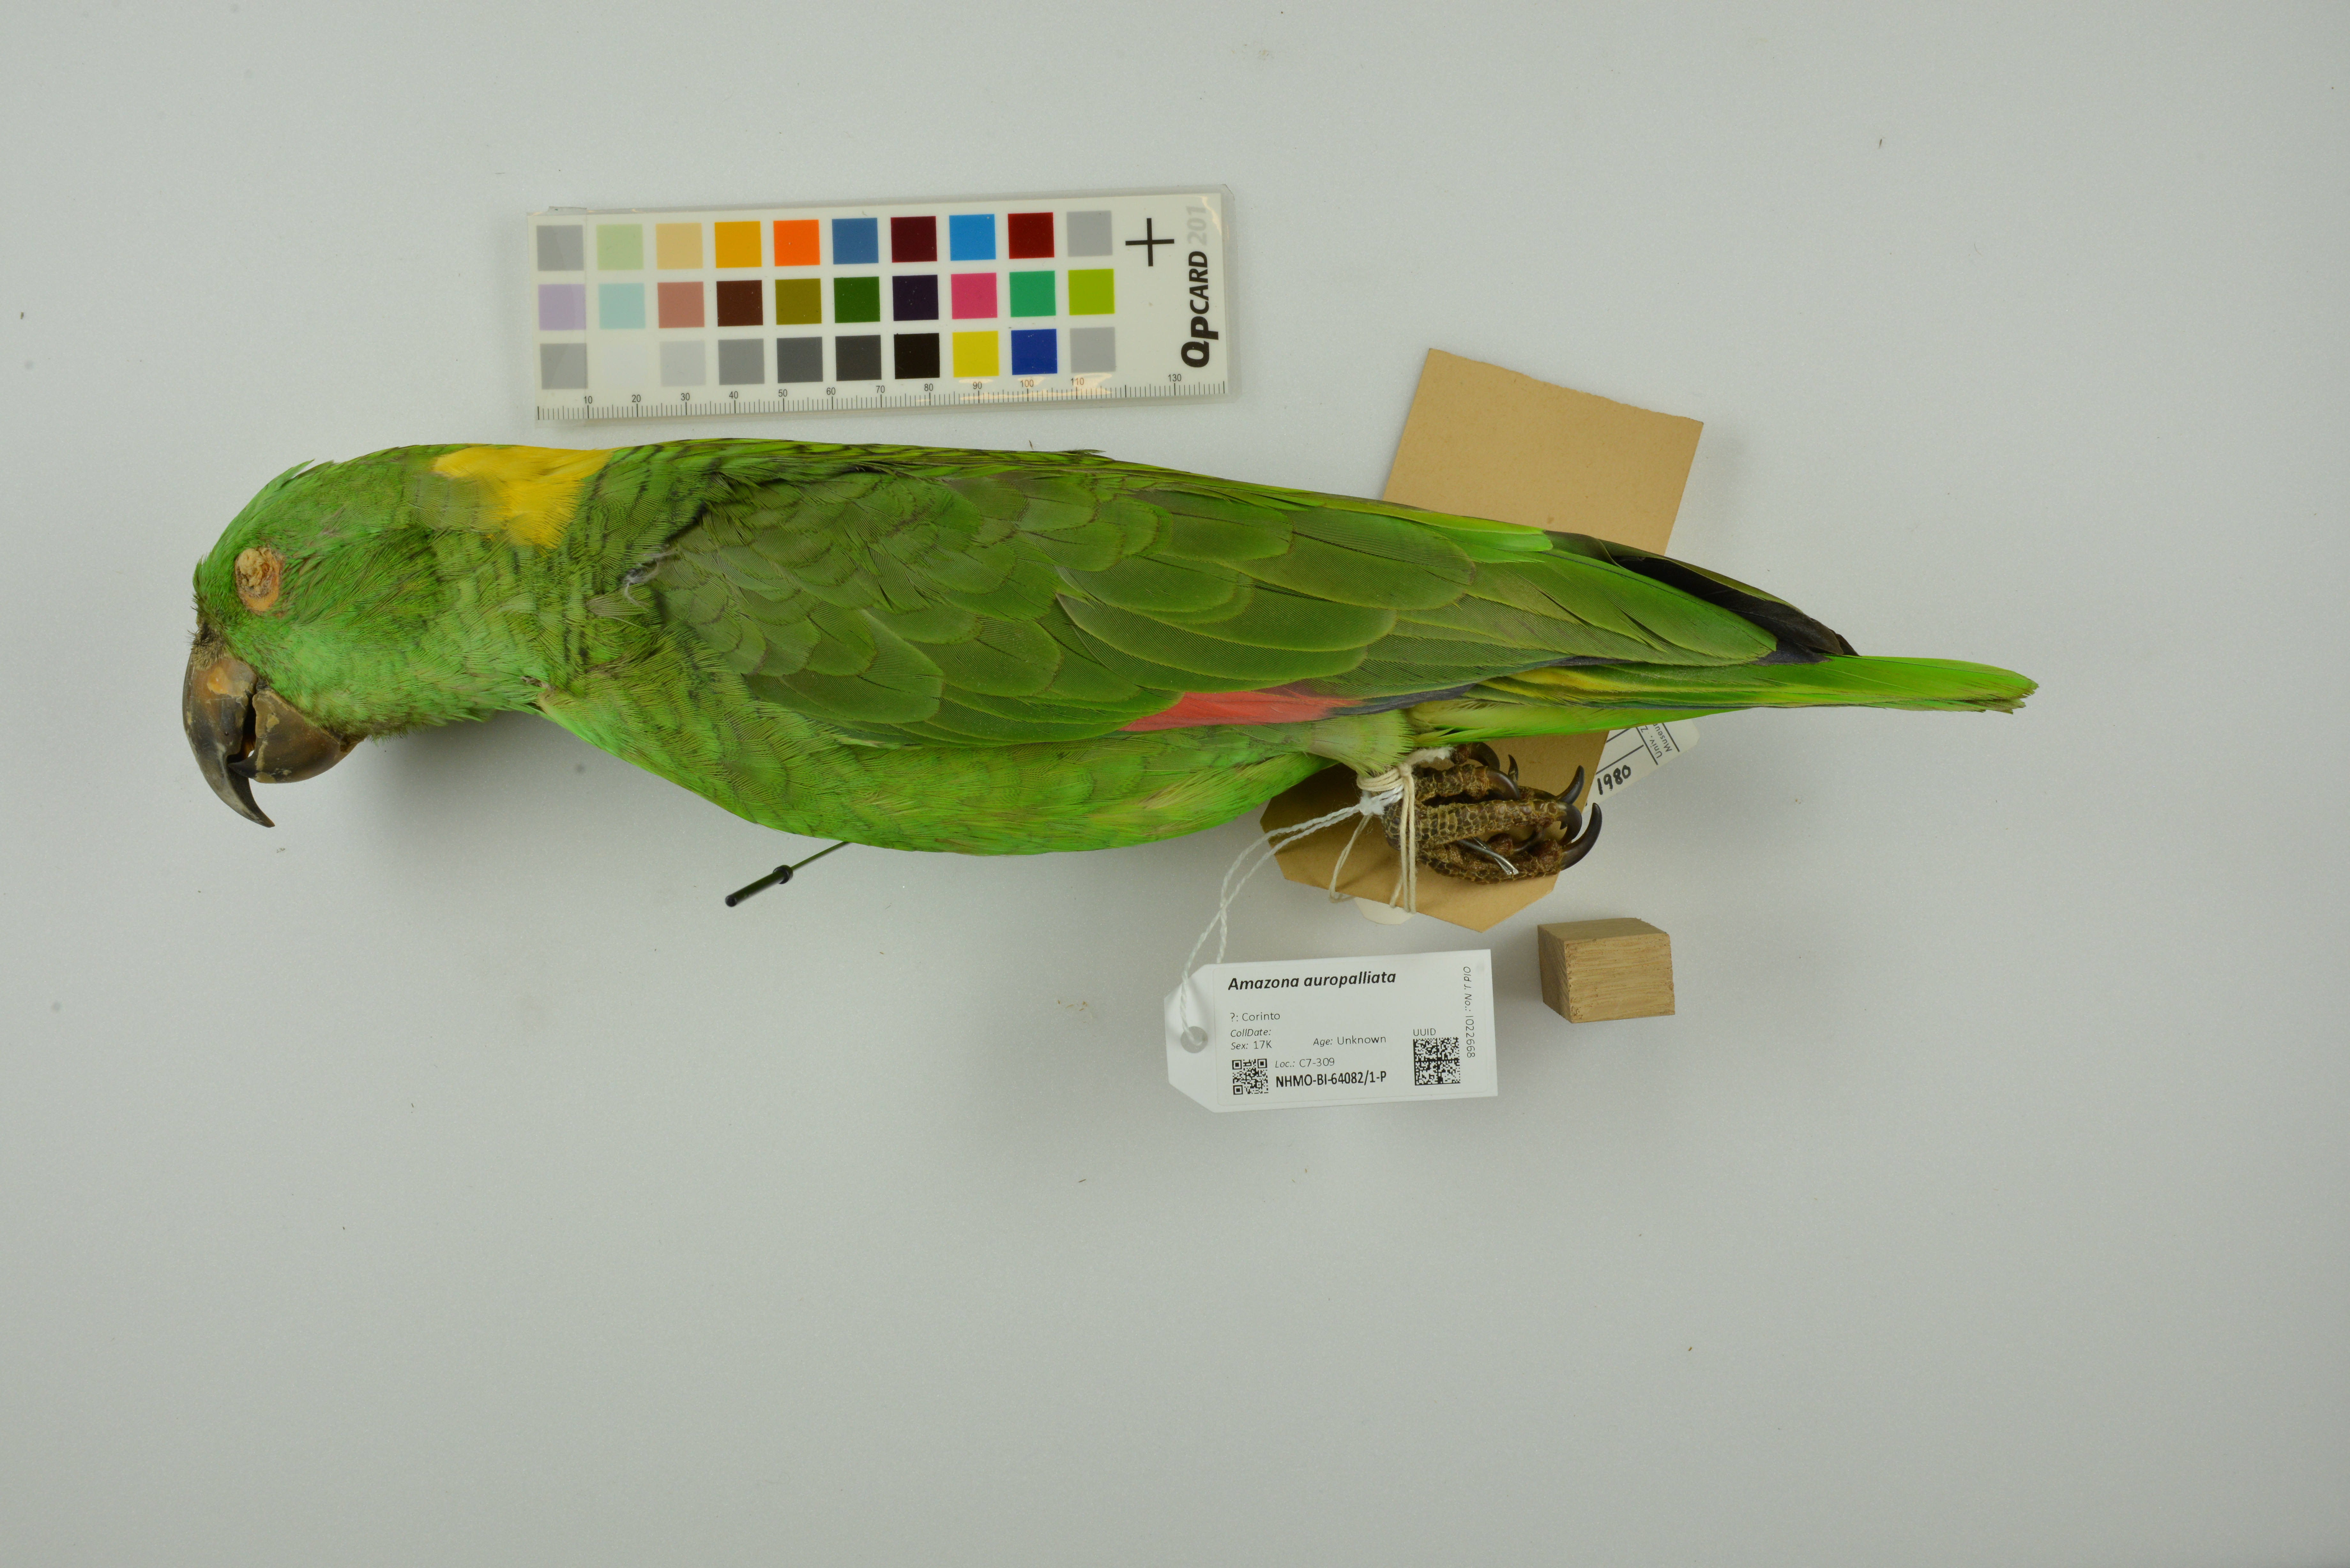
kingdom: Animalia
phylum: Chordata
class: Aves
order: Psittaciformes
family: Psittacidae
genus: Amazona
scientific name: Amazona auropalliata
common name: Yellow-naped amazon
